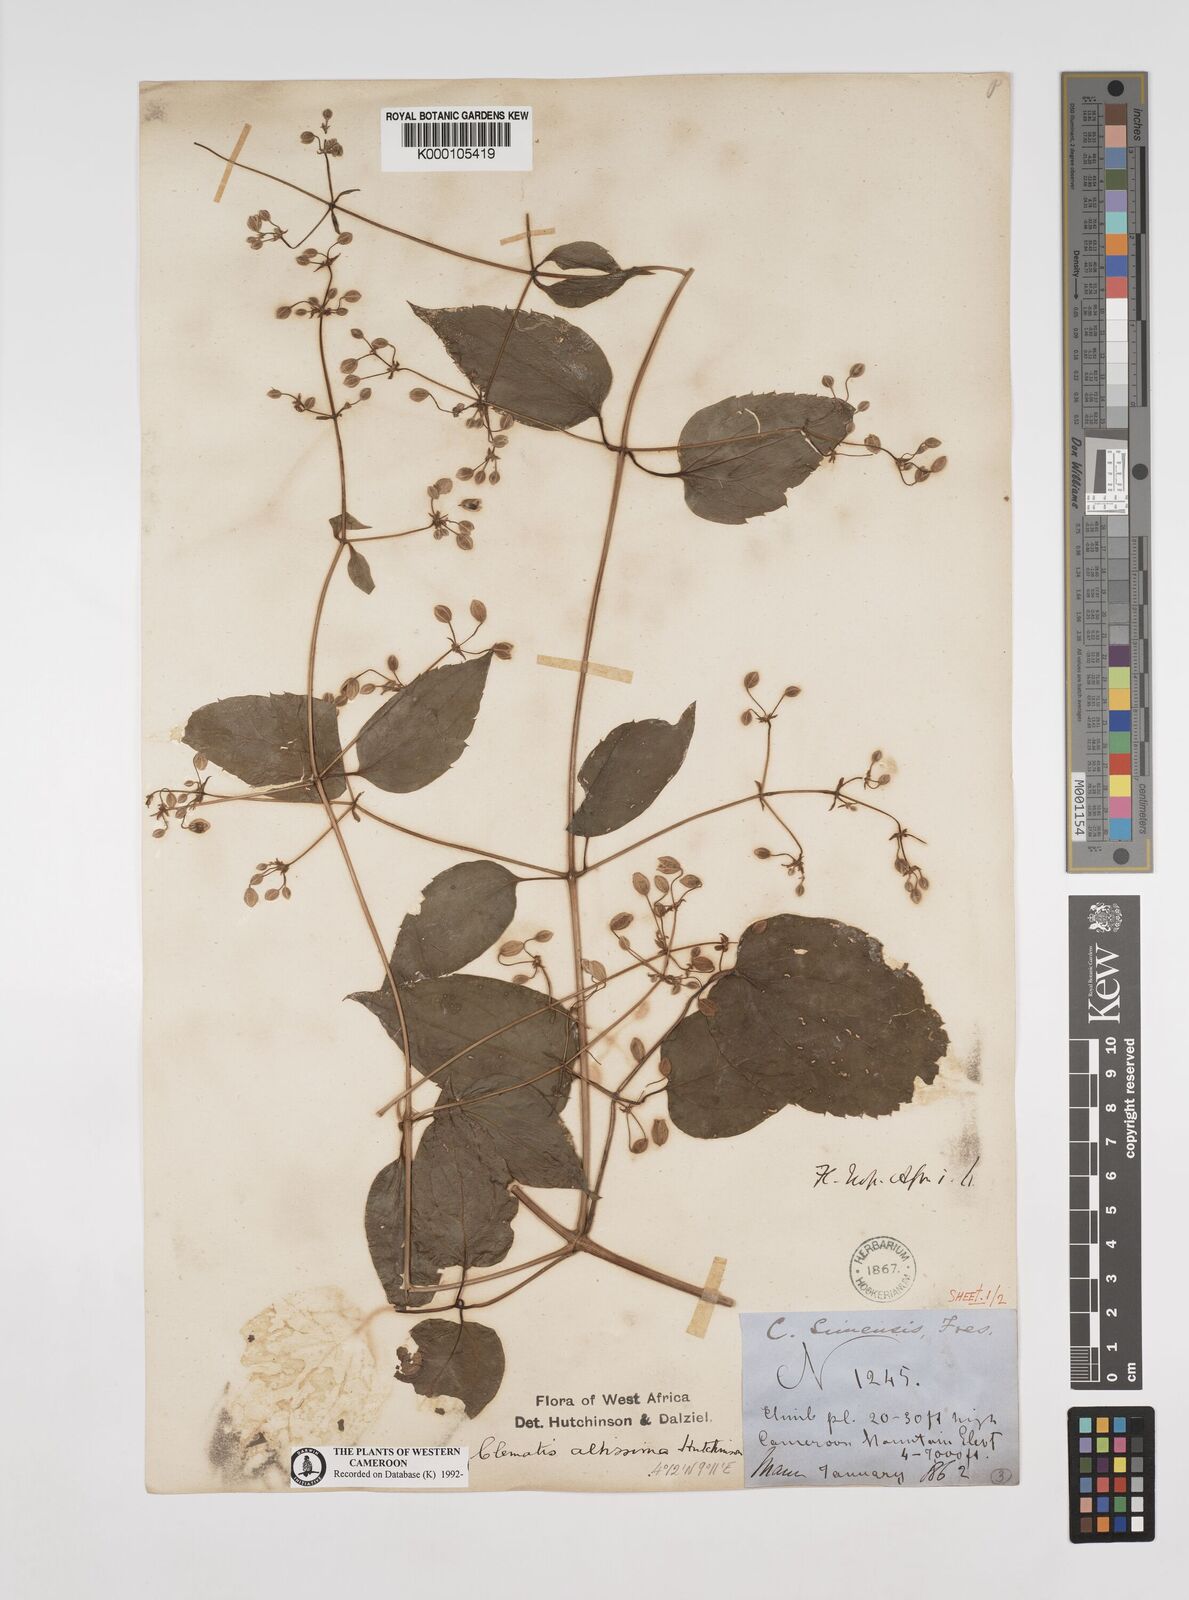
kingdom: Plantae
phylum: Tracheophyta
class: Magnoliopsida
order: Ranunculales
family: Ranunculaceae
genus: Clematis
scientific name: Clematis simensis
